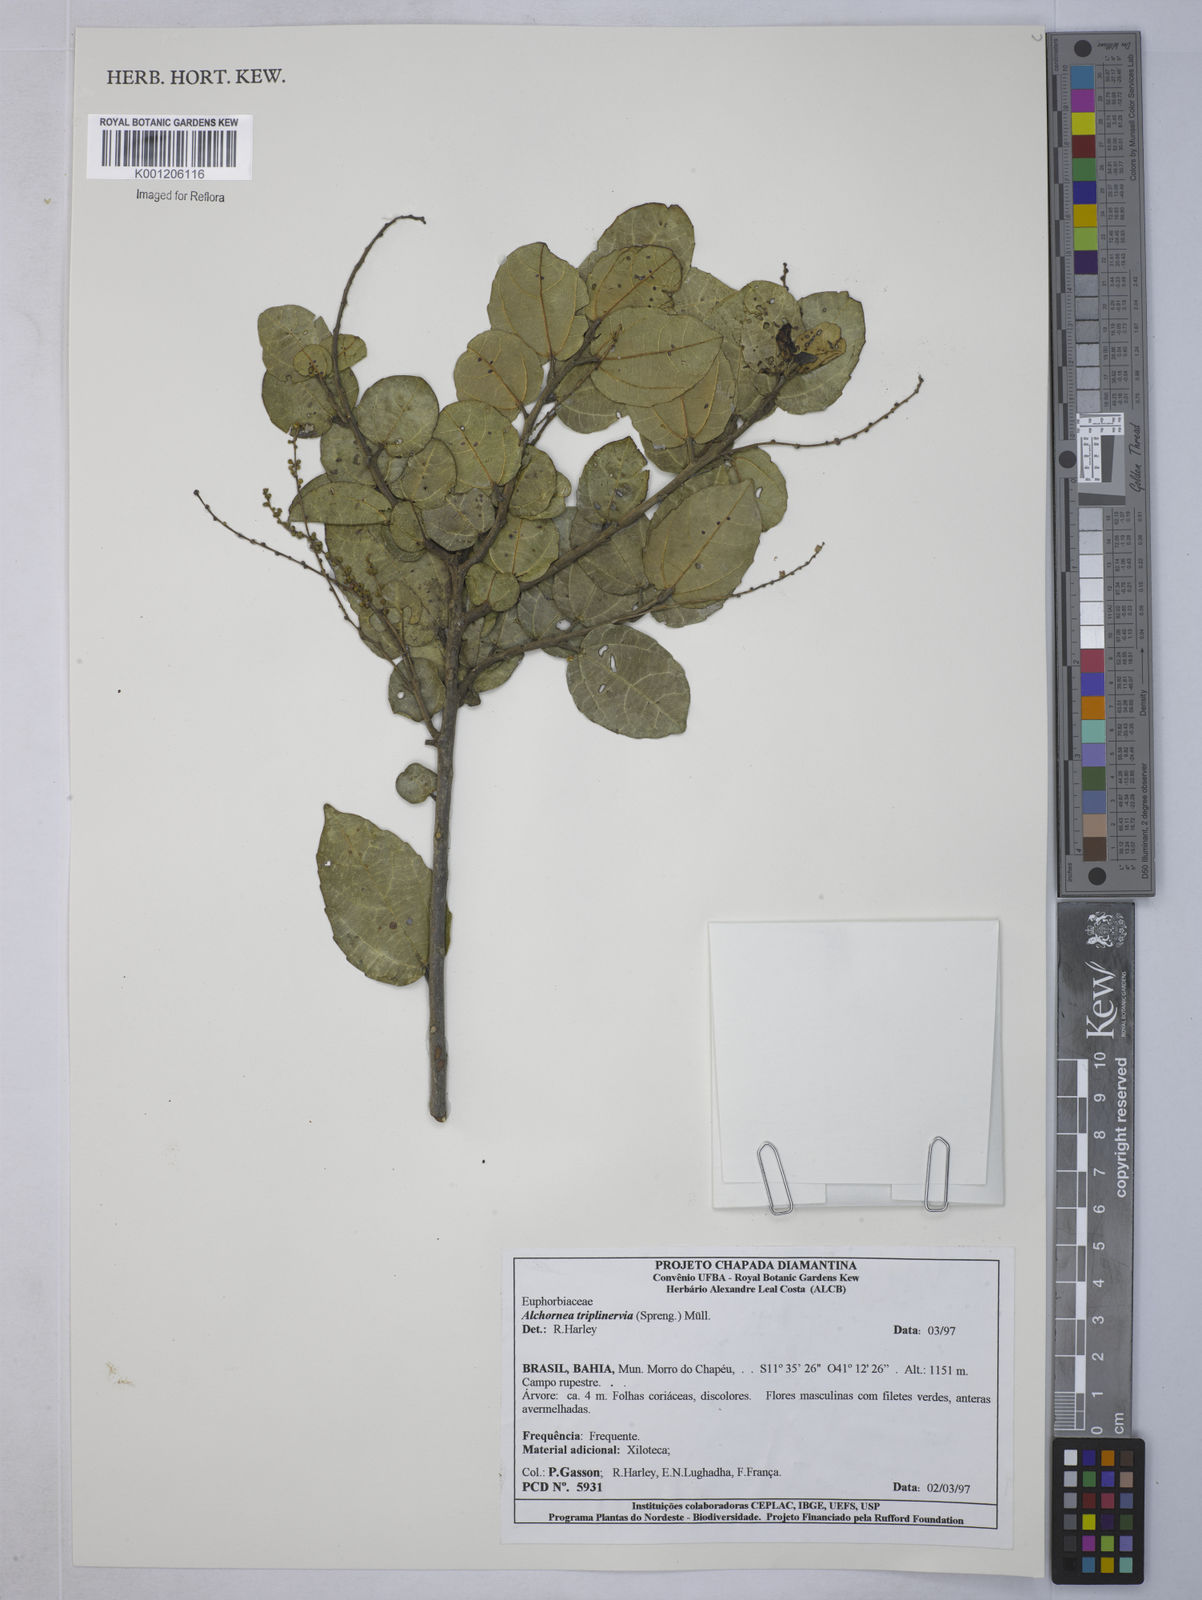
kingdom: Plantae
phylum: Tracheophyta
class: Magnoliopsida
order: Malpighiales
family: Euphorbiaceae
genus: Alchornea
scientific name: Alchornea
